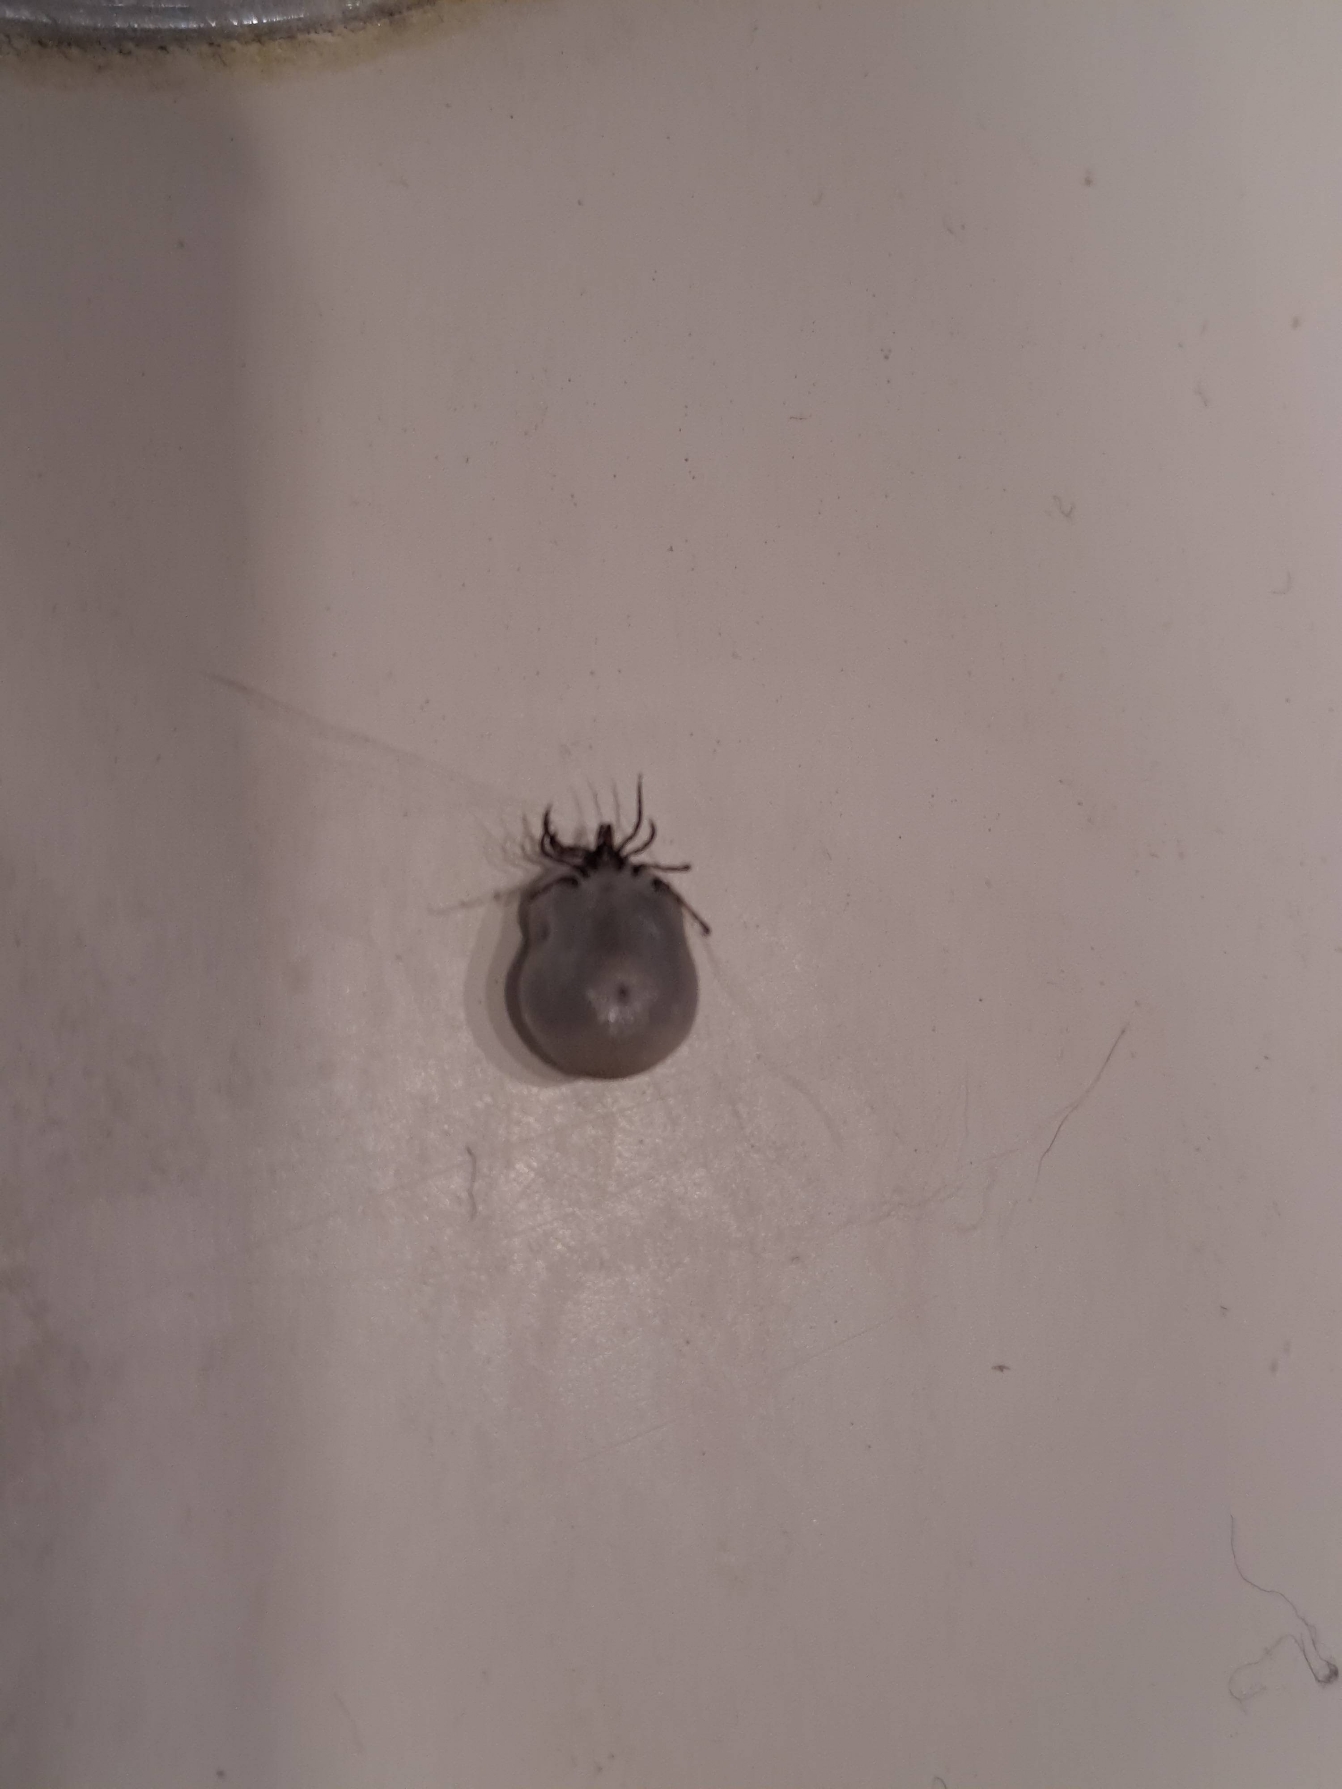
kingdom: Animalia
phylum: Arthropoda
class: Arachnida
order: Ixodida
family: Ixodidae
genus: Ixodes
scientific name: Ixodes ricinus
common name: Skovflåt
